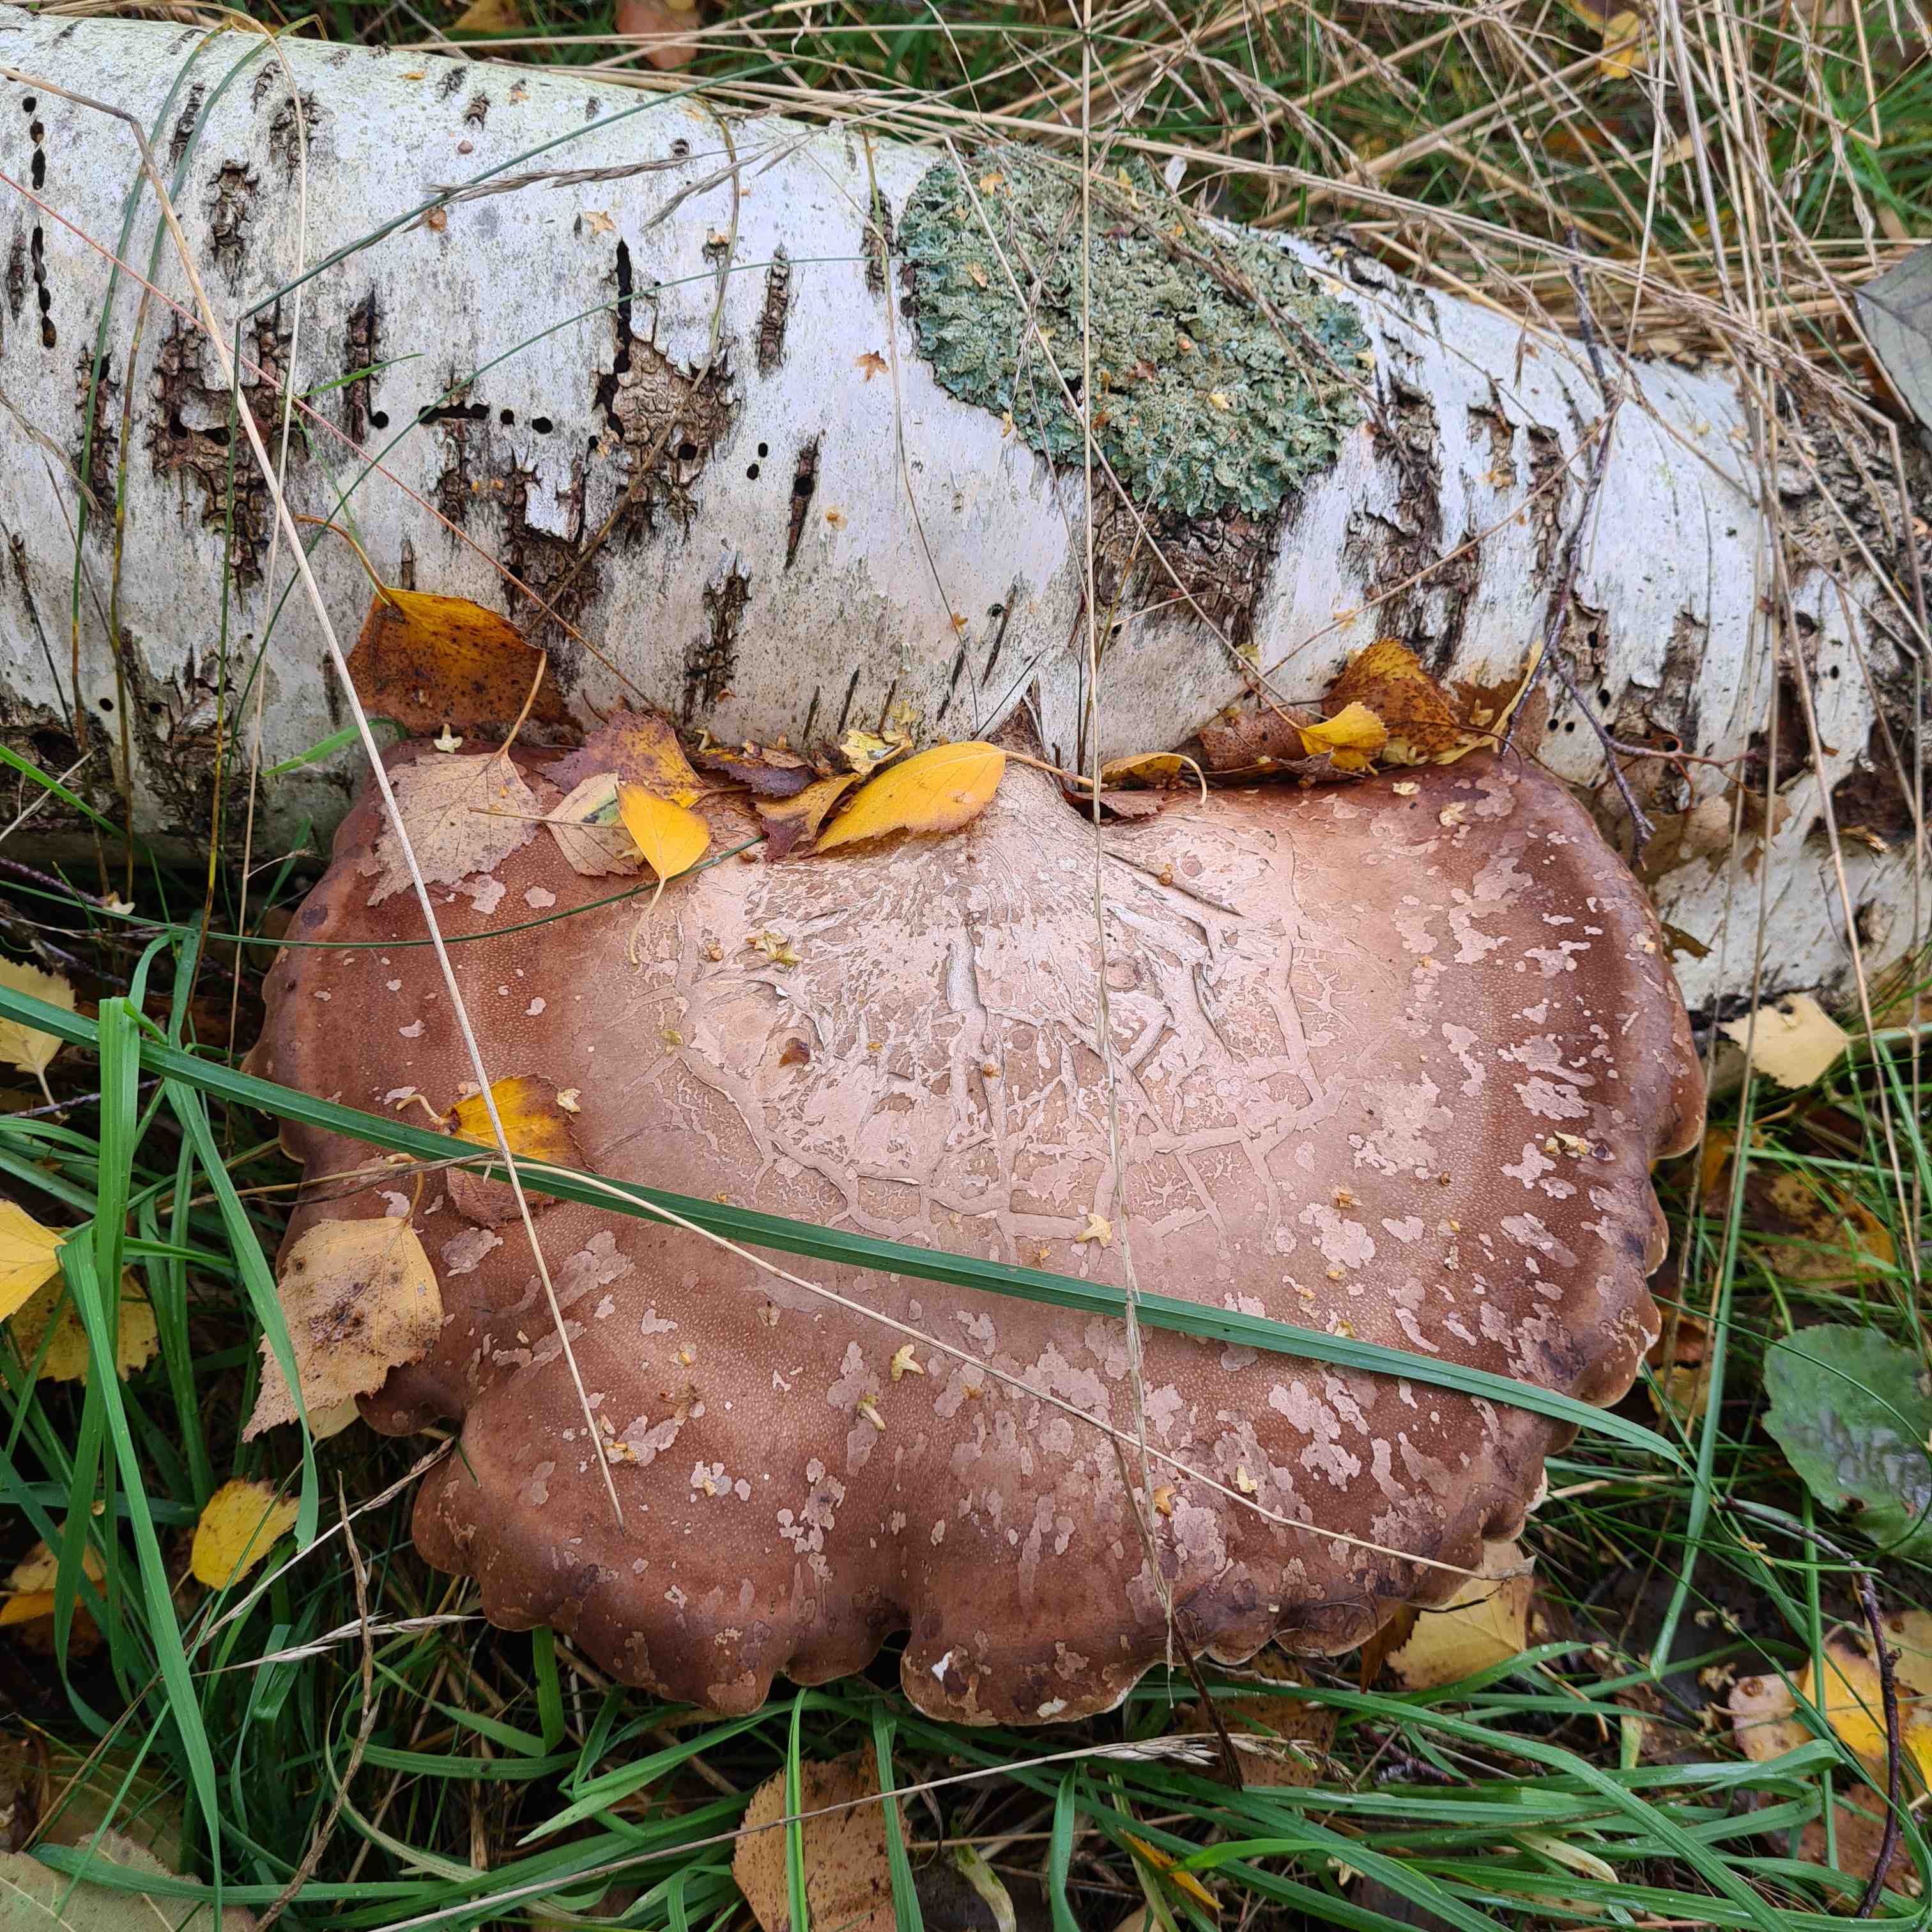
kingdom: Fungi
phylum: Basidiomycota
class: Agaricomycetes
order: Polyporales
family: Fomitopsidaceae
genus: Fomitopsis
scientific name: Fomitopsis betulina
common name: birkeporesvamp
